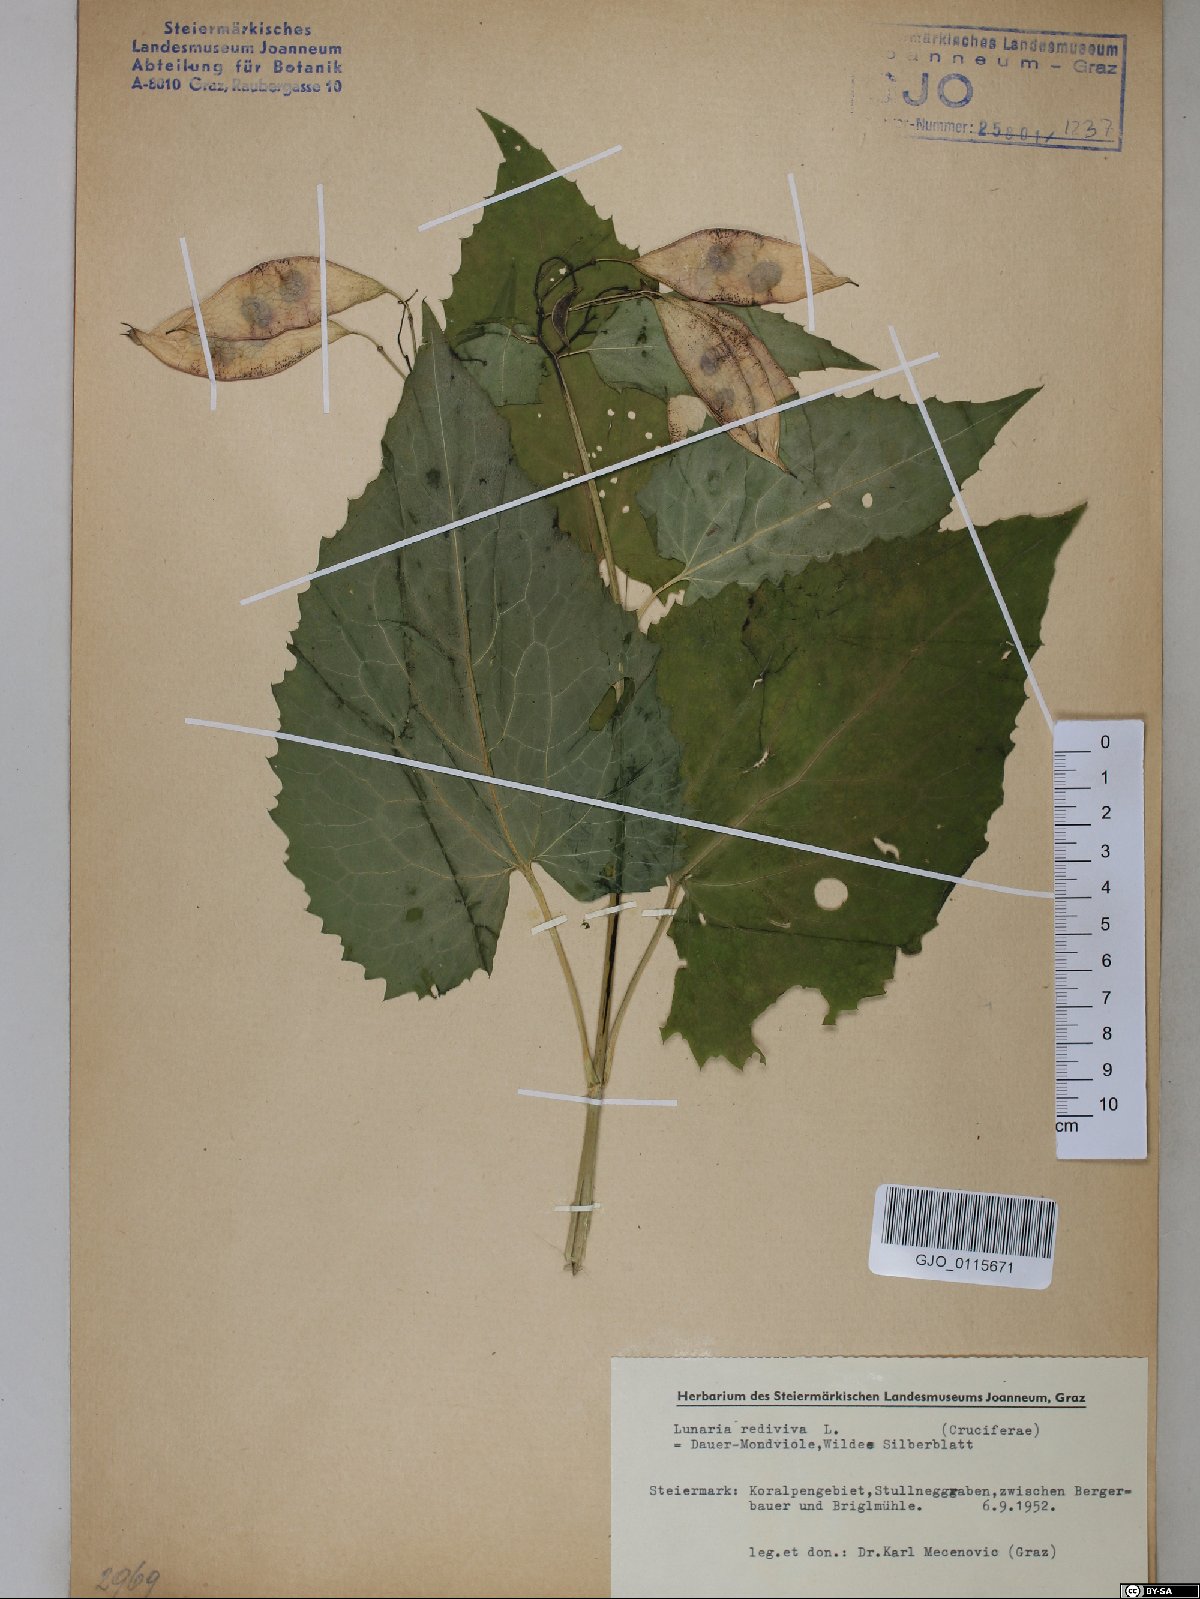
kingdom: Plantae
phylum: Tracheophyta
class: Magnoliopsida
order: Brassicales
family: Brassicaceae
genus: Lunaria
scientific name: Lunaria rediviva
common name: Perennial honesty
